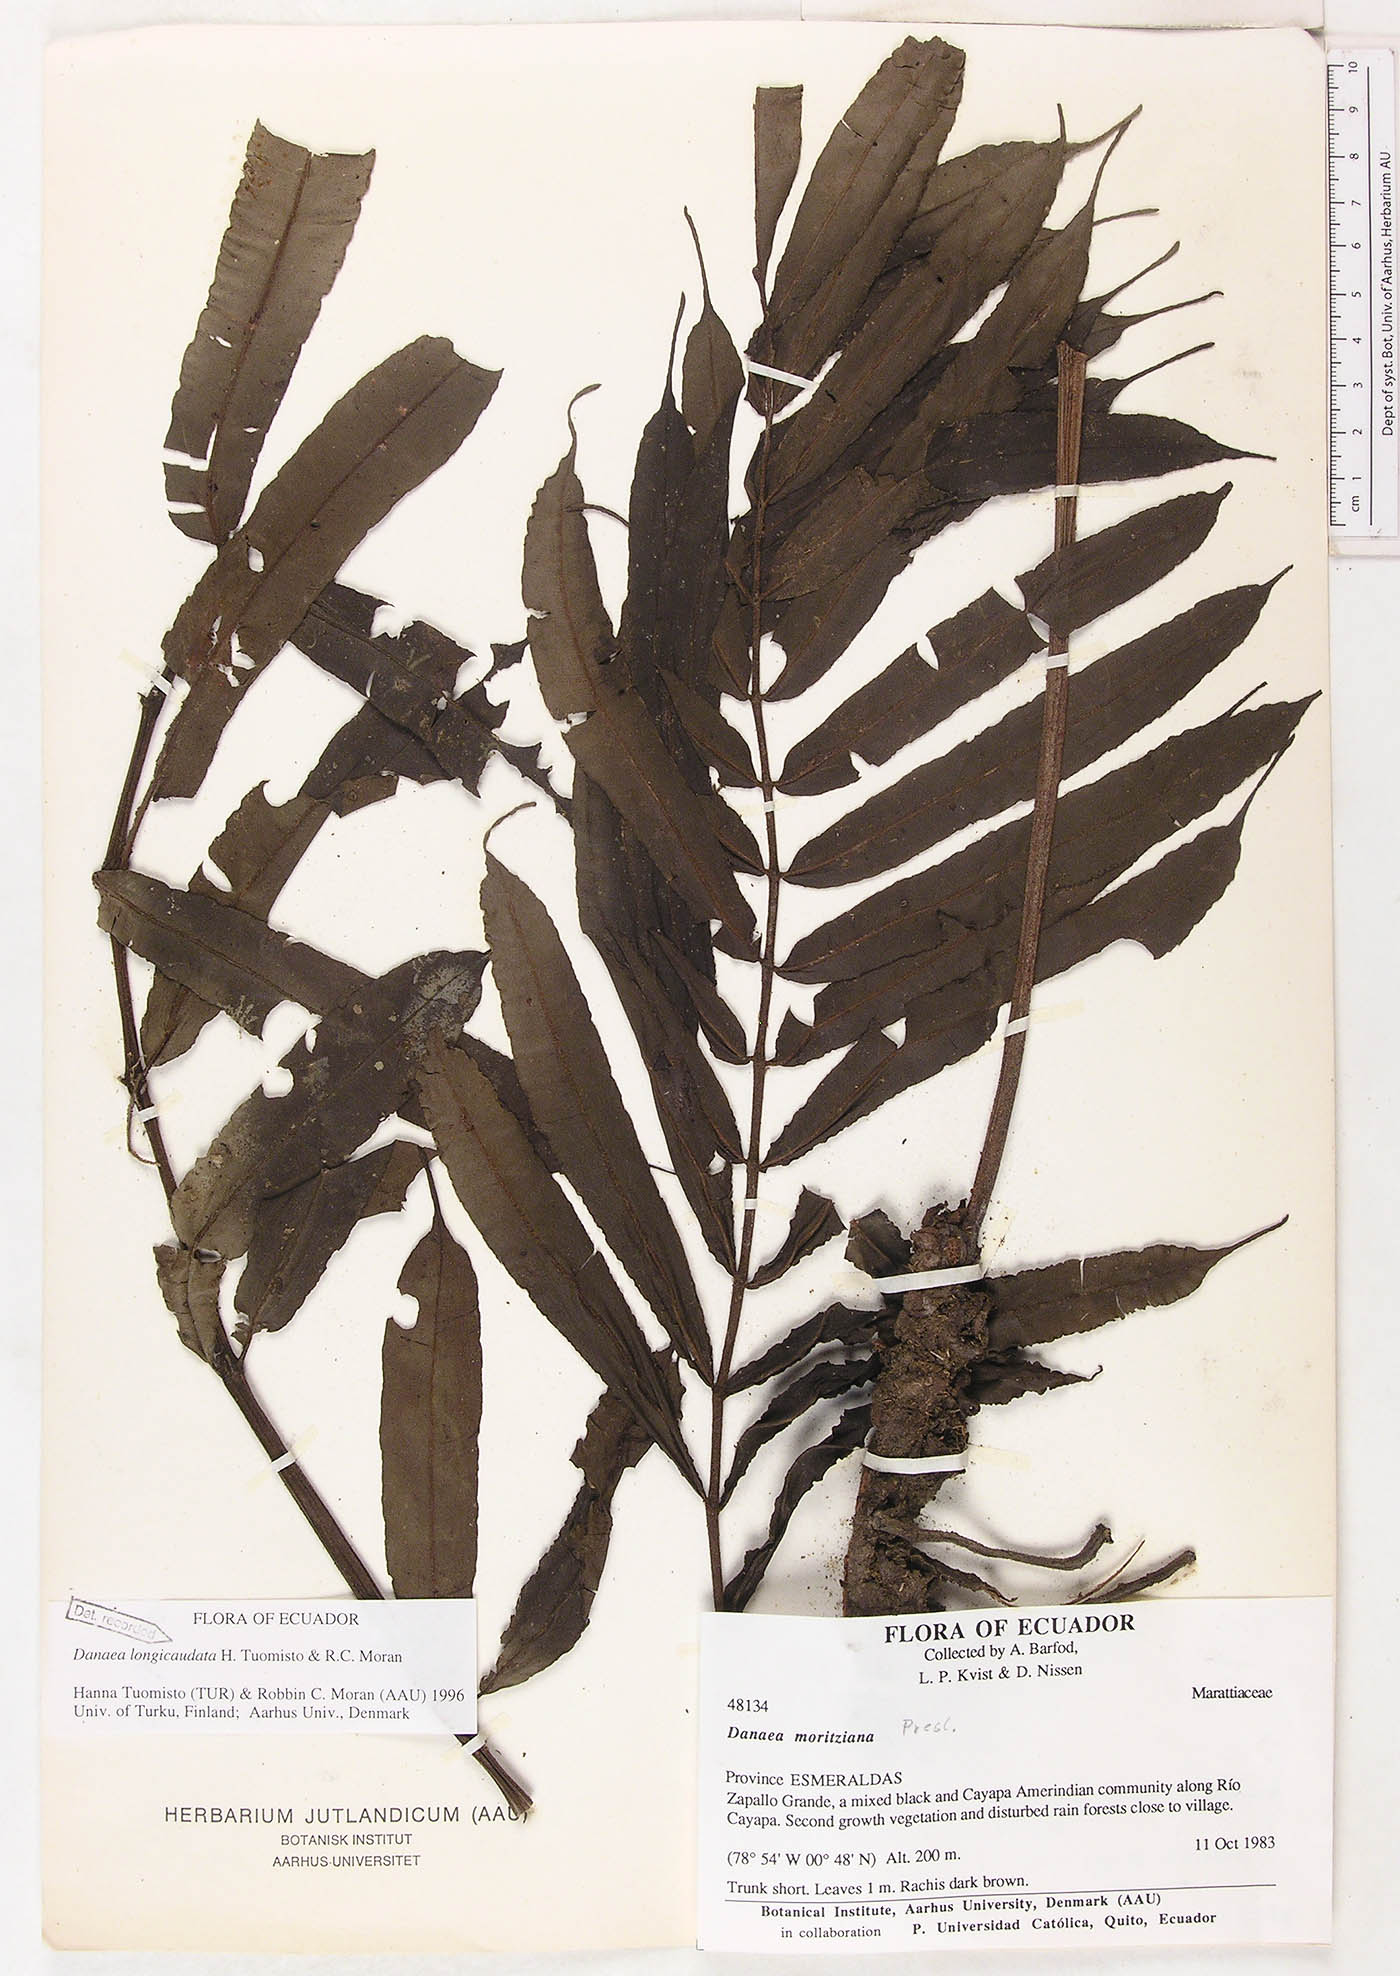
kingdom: Plantae
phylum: Tracheophyta
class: Polypodiopsida
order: Marattiales
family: Marattiaceae
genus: Danaea
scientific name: Danaea moritziana
